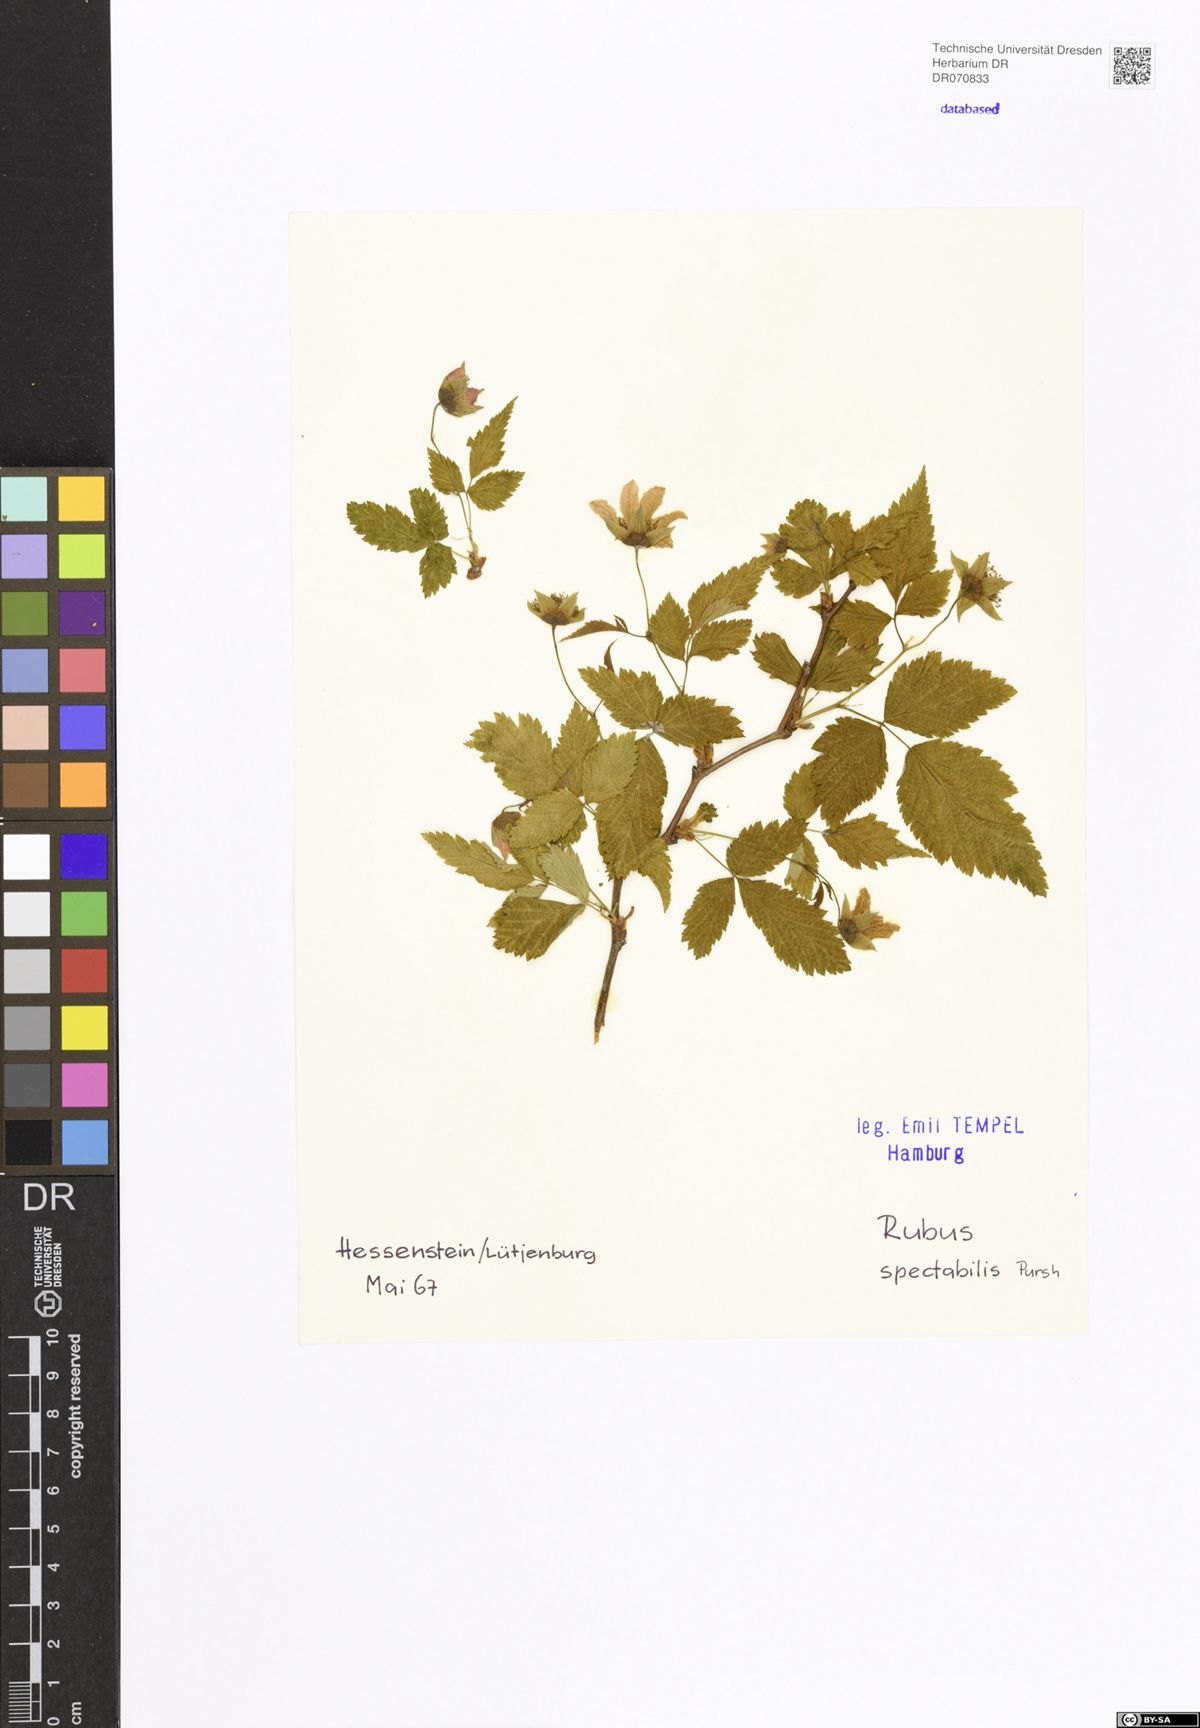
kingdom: Plantae
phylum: Tracheophyta
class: Magnoliopsida
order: Rosales
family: Rosaceae
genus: Rubus
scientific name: Rubus spectabilis
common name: Salmonberry
